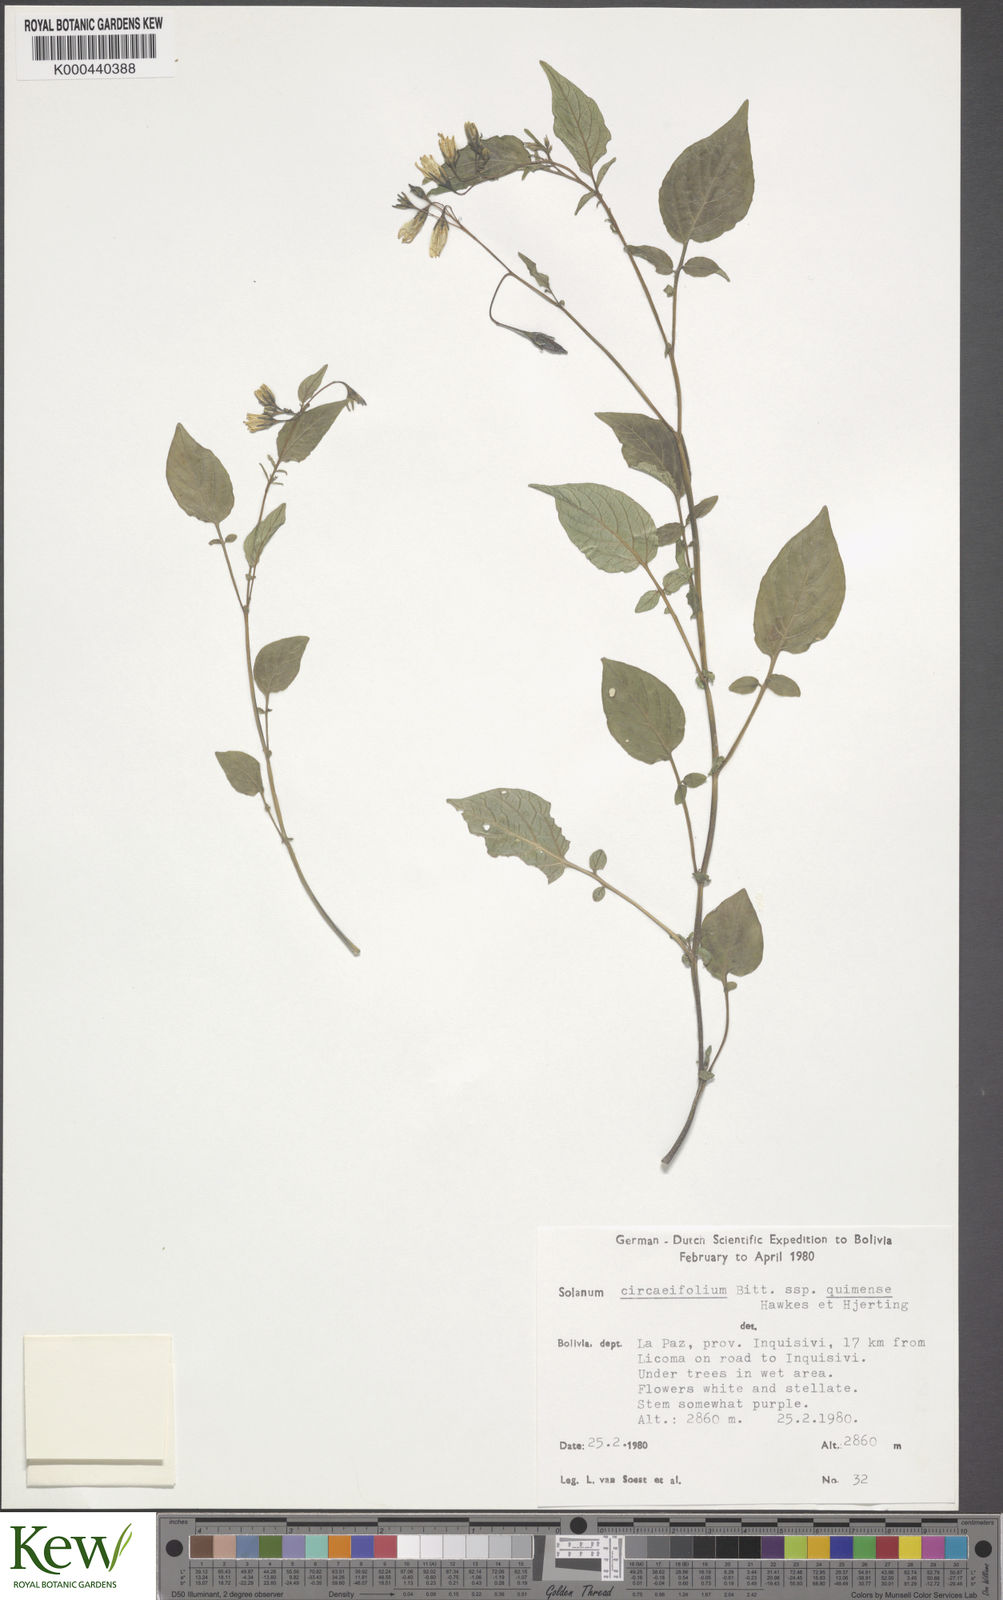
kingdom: Plantae
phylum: Tracheophyta
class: Magnoliopsida
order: Solanales
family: Solanaceae
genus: Solanum
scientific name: Solanum stipuloideum
